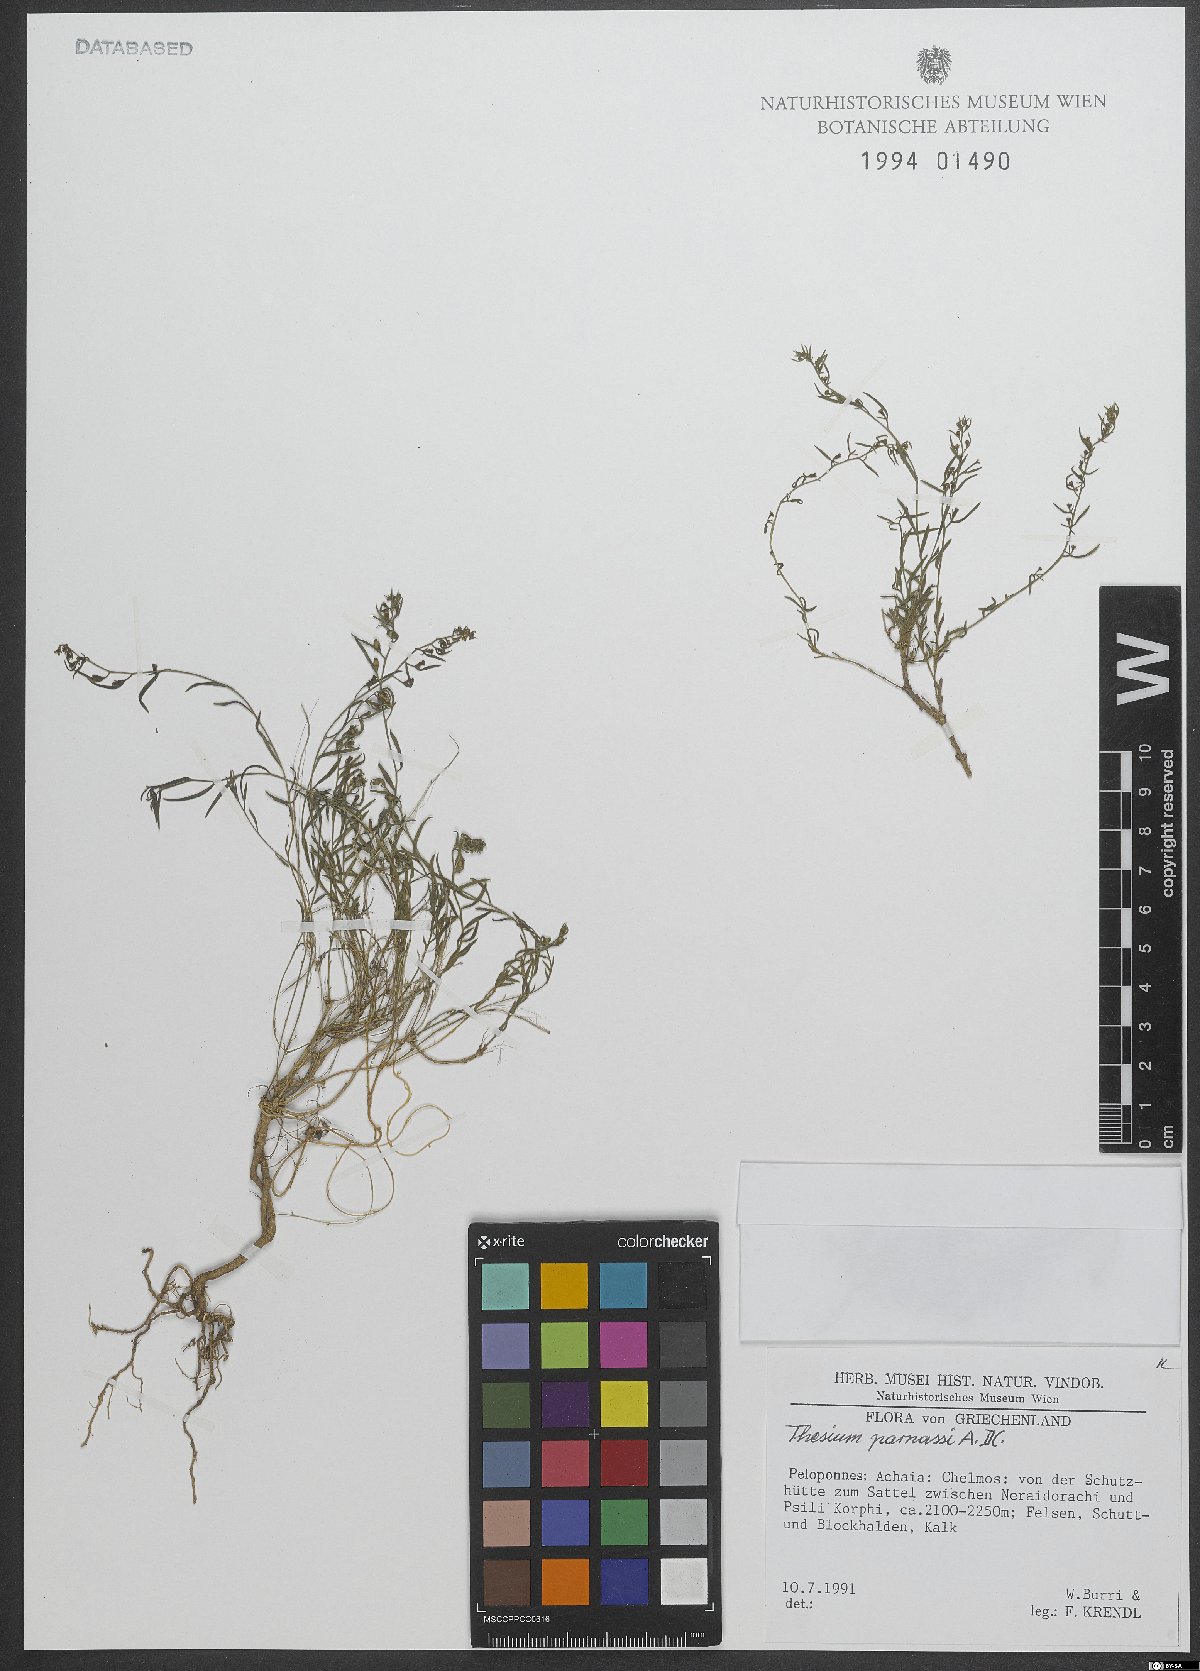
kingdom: Plantae
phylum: Tracheophyta
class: Magnoliopsida
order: Santalales
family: Thesiaceae
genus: Thesium
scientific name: Thesium parnassi
